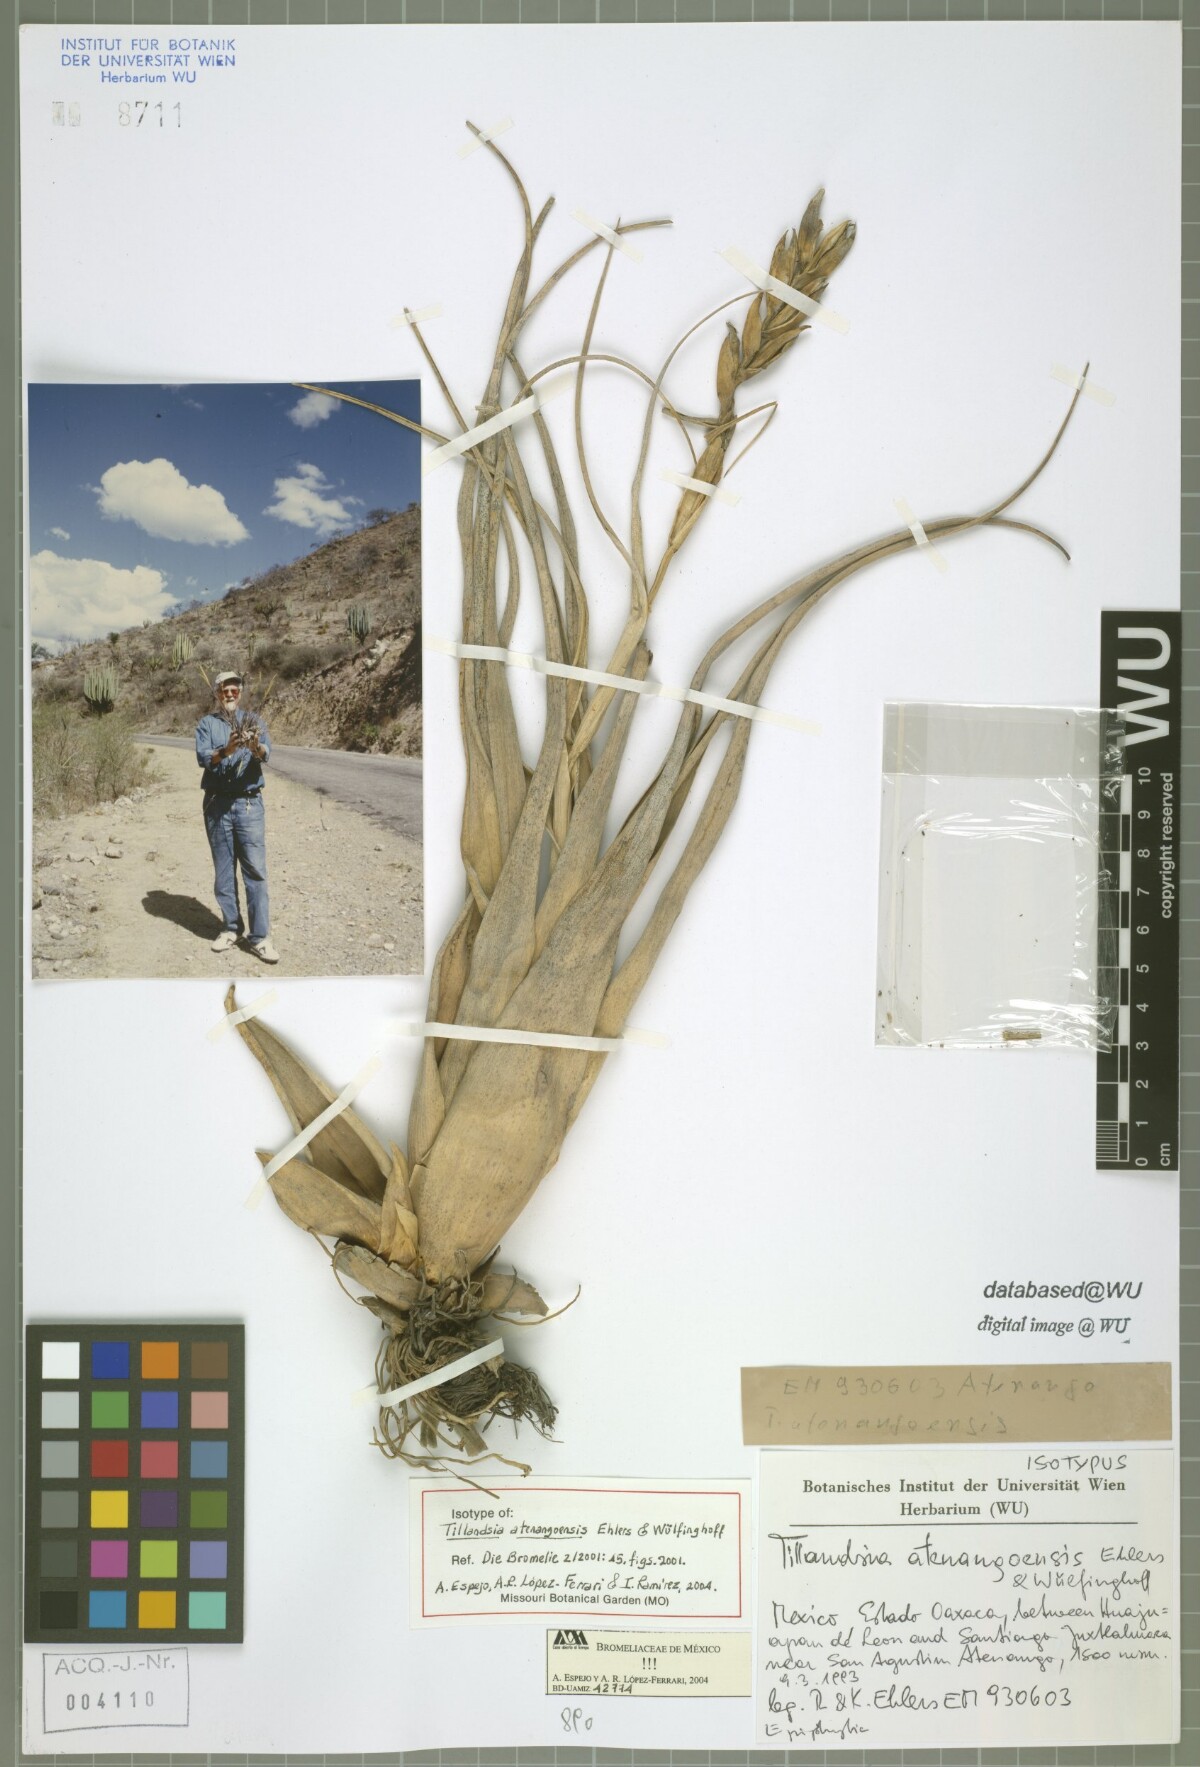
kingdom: Plantae
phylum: Tracheophyta
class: Liliopsida
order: Poales
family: Bromeliaceae
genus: Tillandsia
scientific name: Tillandsia atenangoensis
